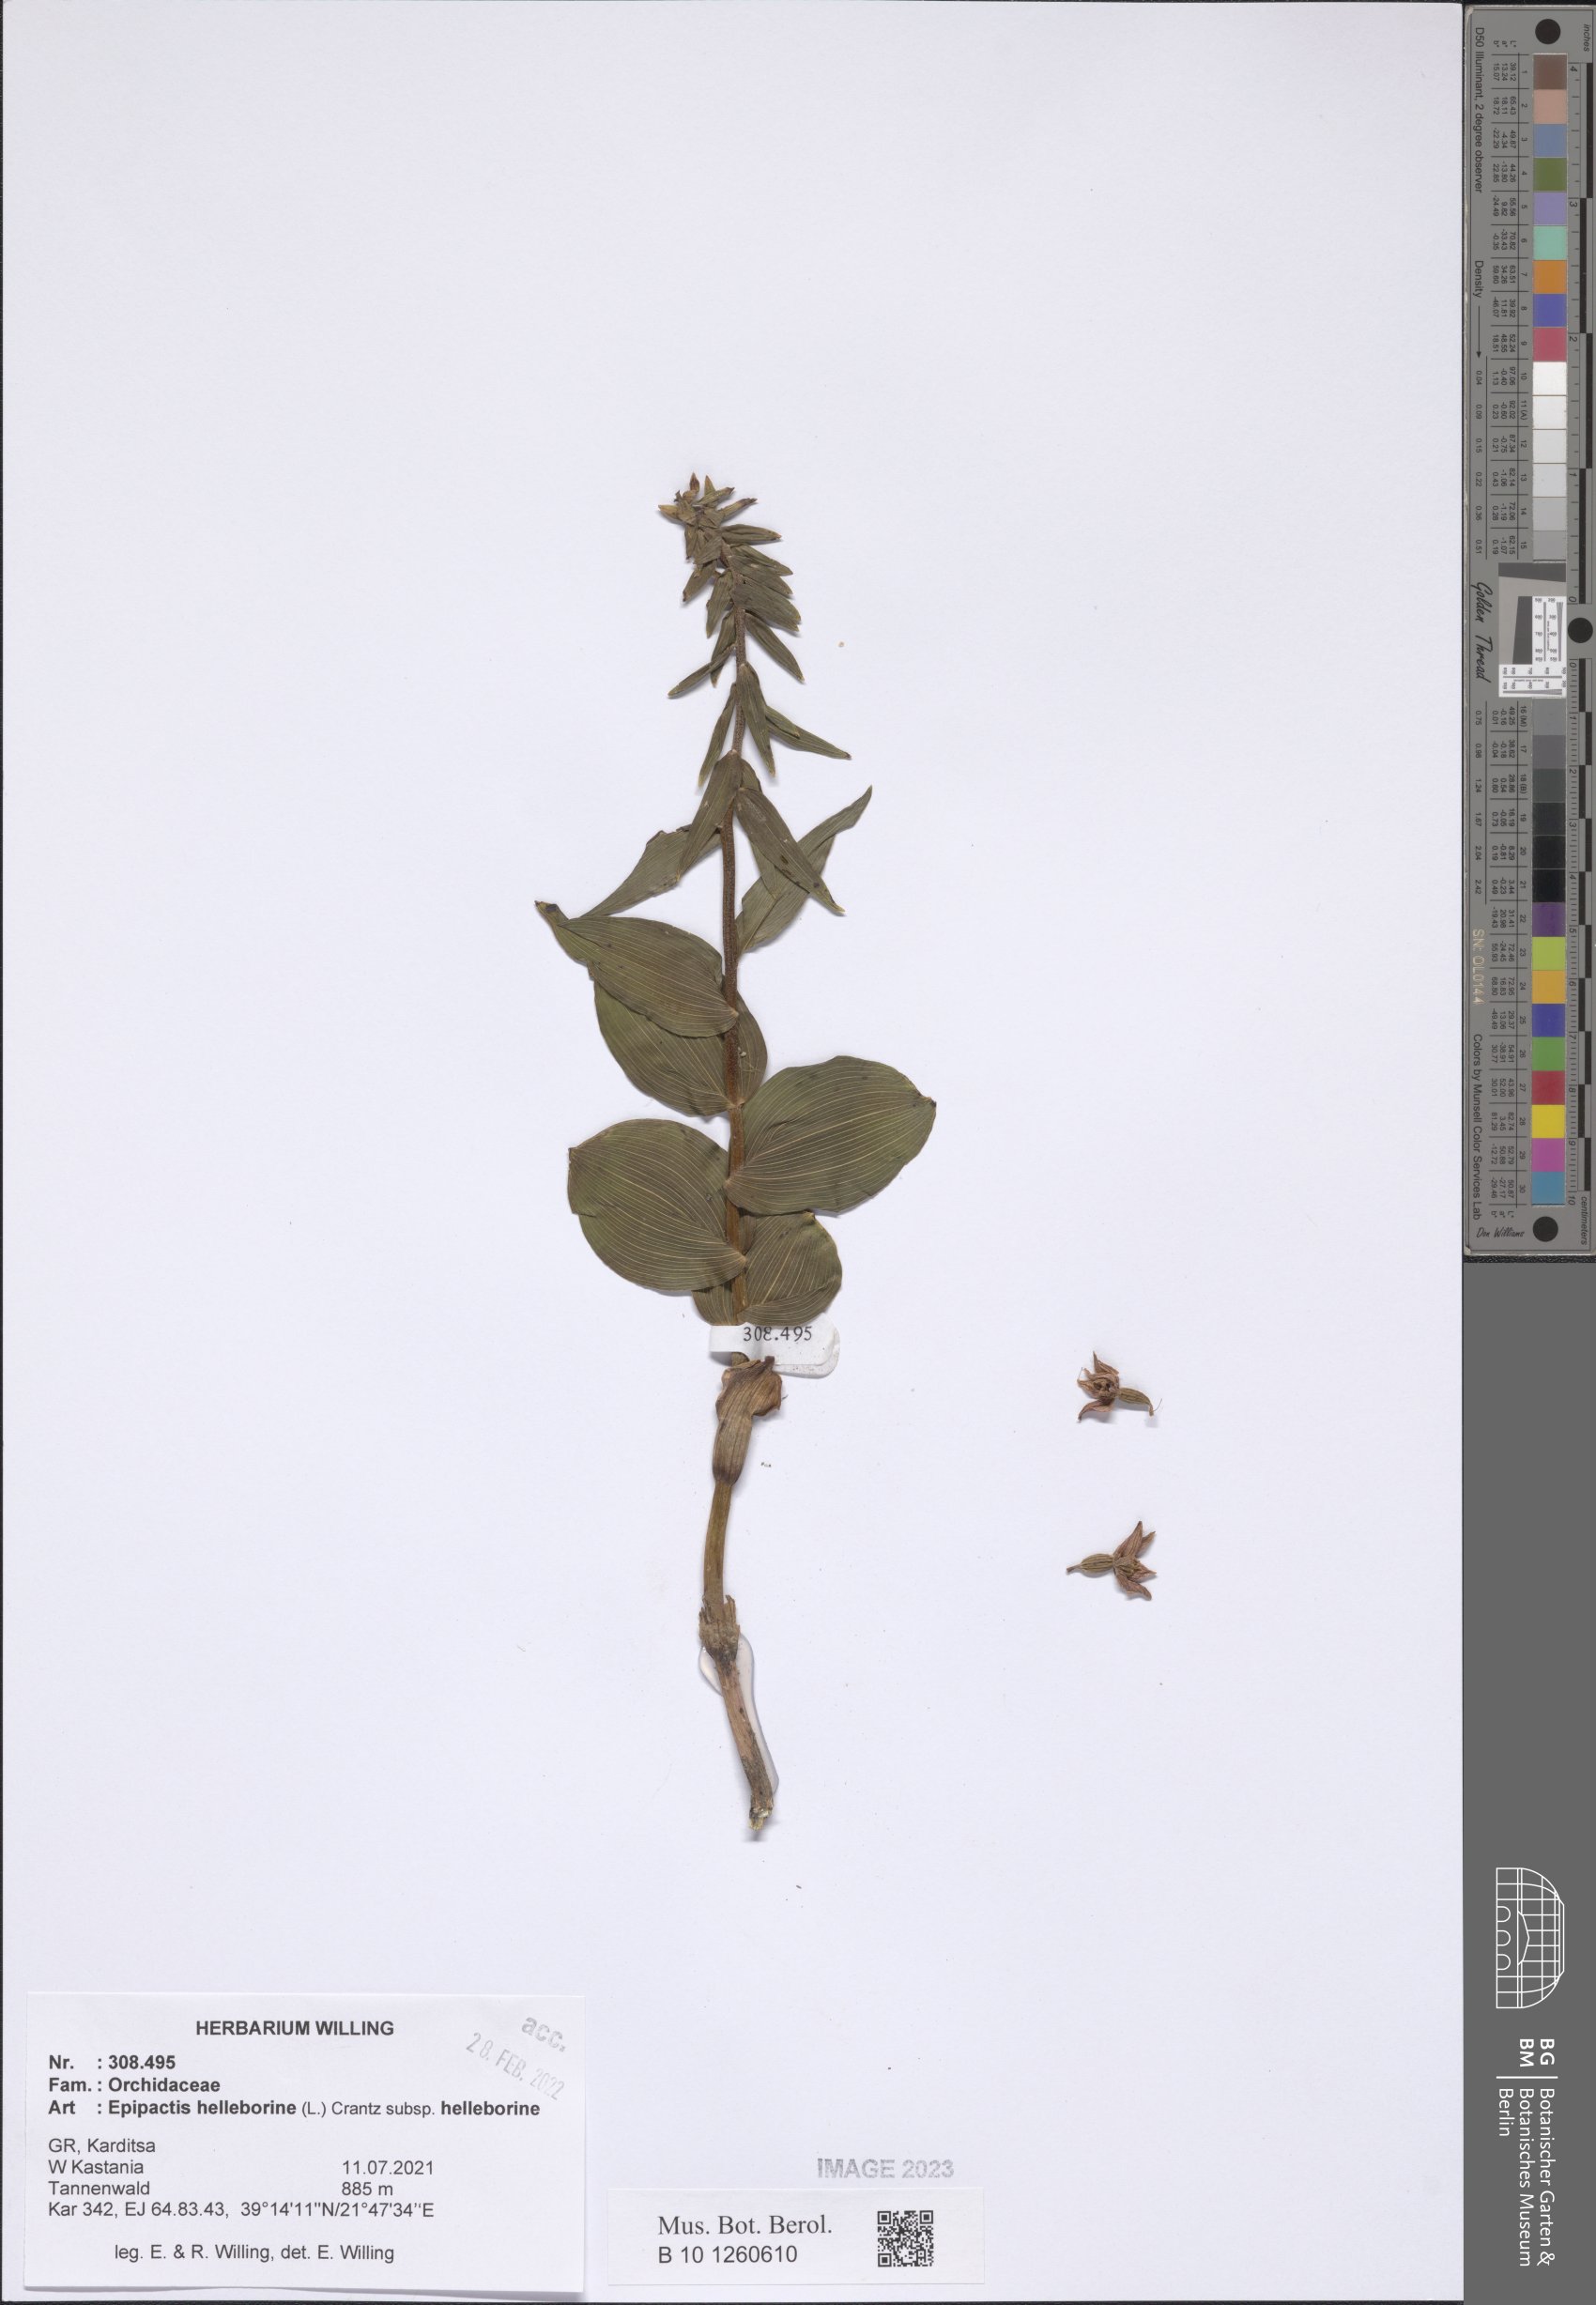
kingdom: Plantae
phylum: Tracheophyta
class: Liliopsida
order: Asparagales
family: Orchidaceae
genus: Epipactis
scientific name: Epipactis helleborine
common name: Broad-leaved helleborine
